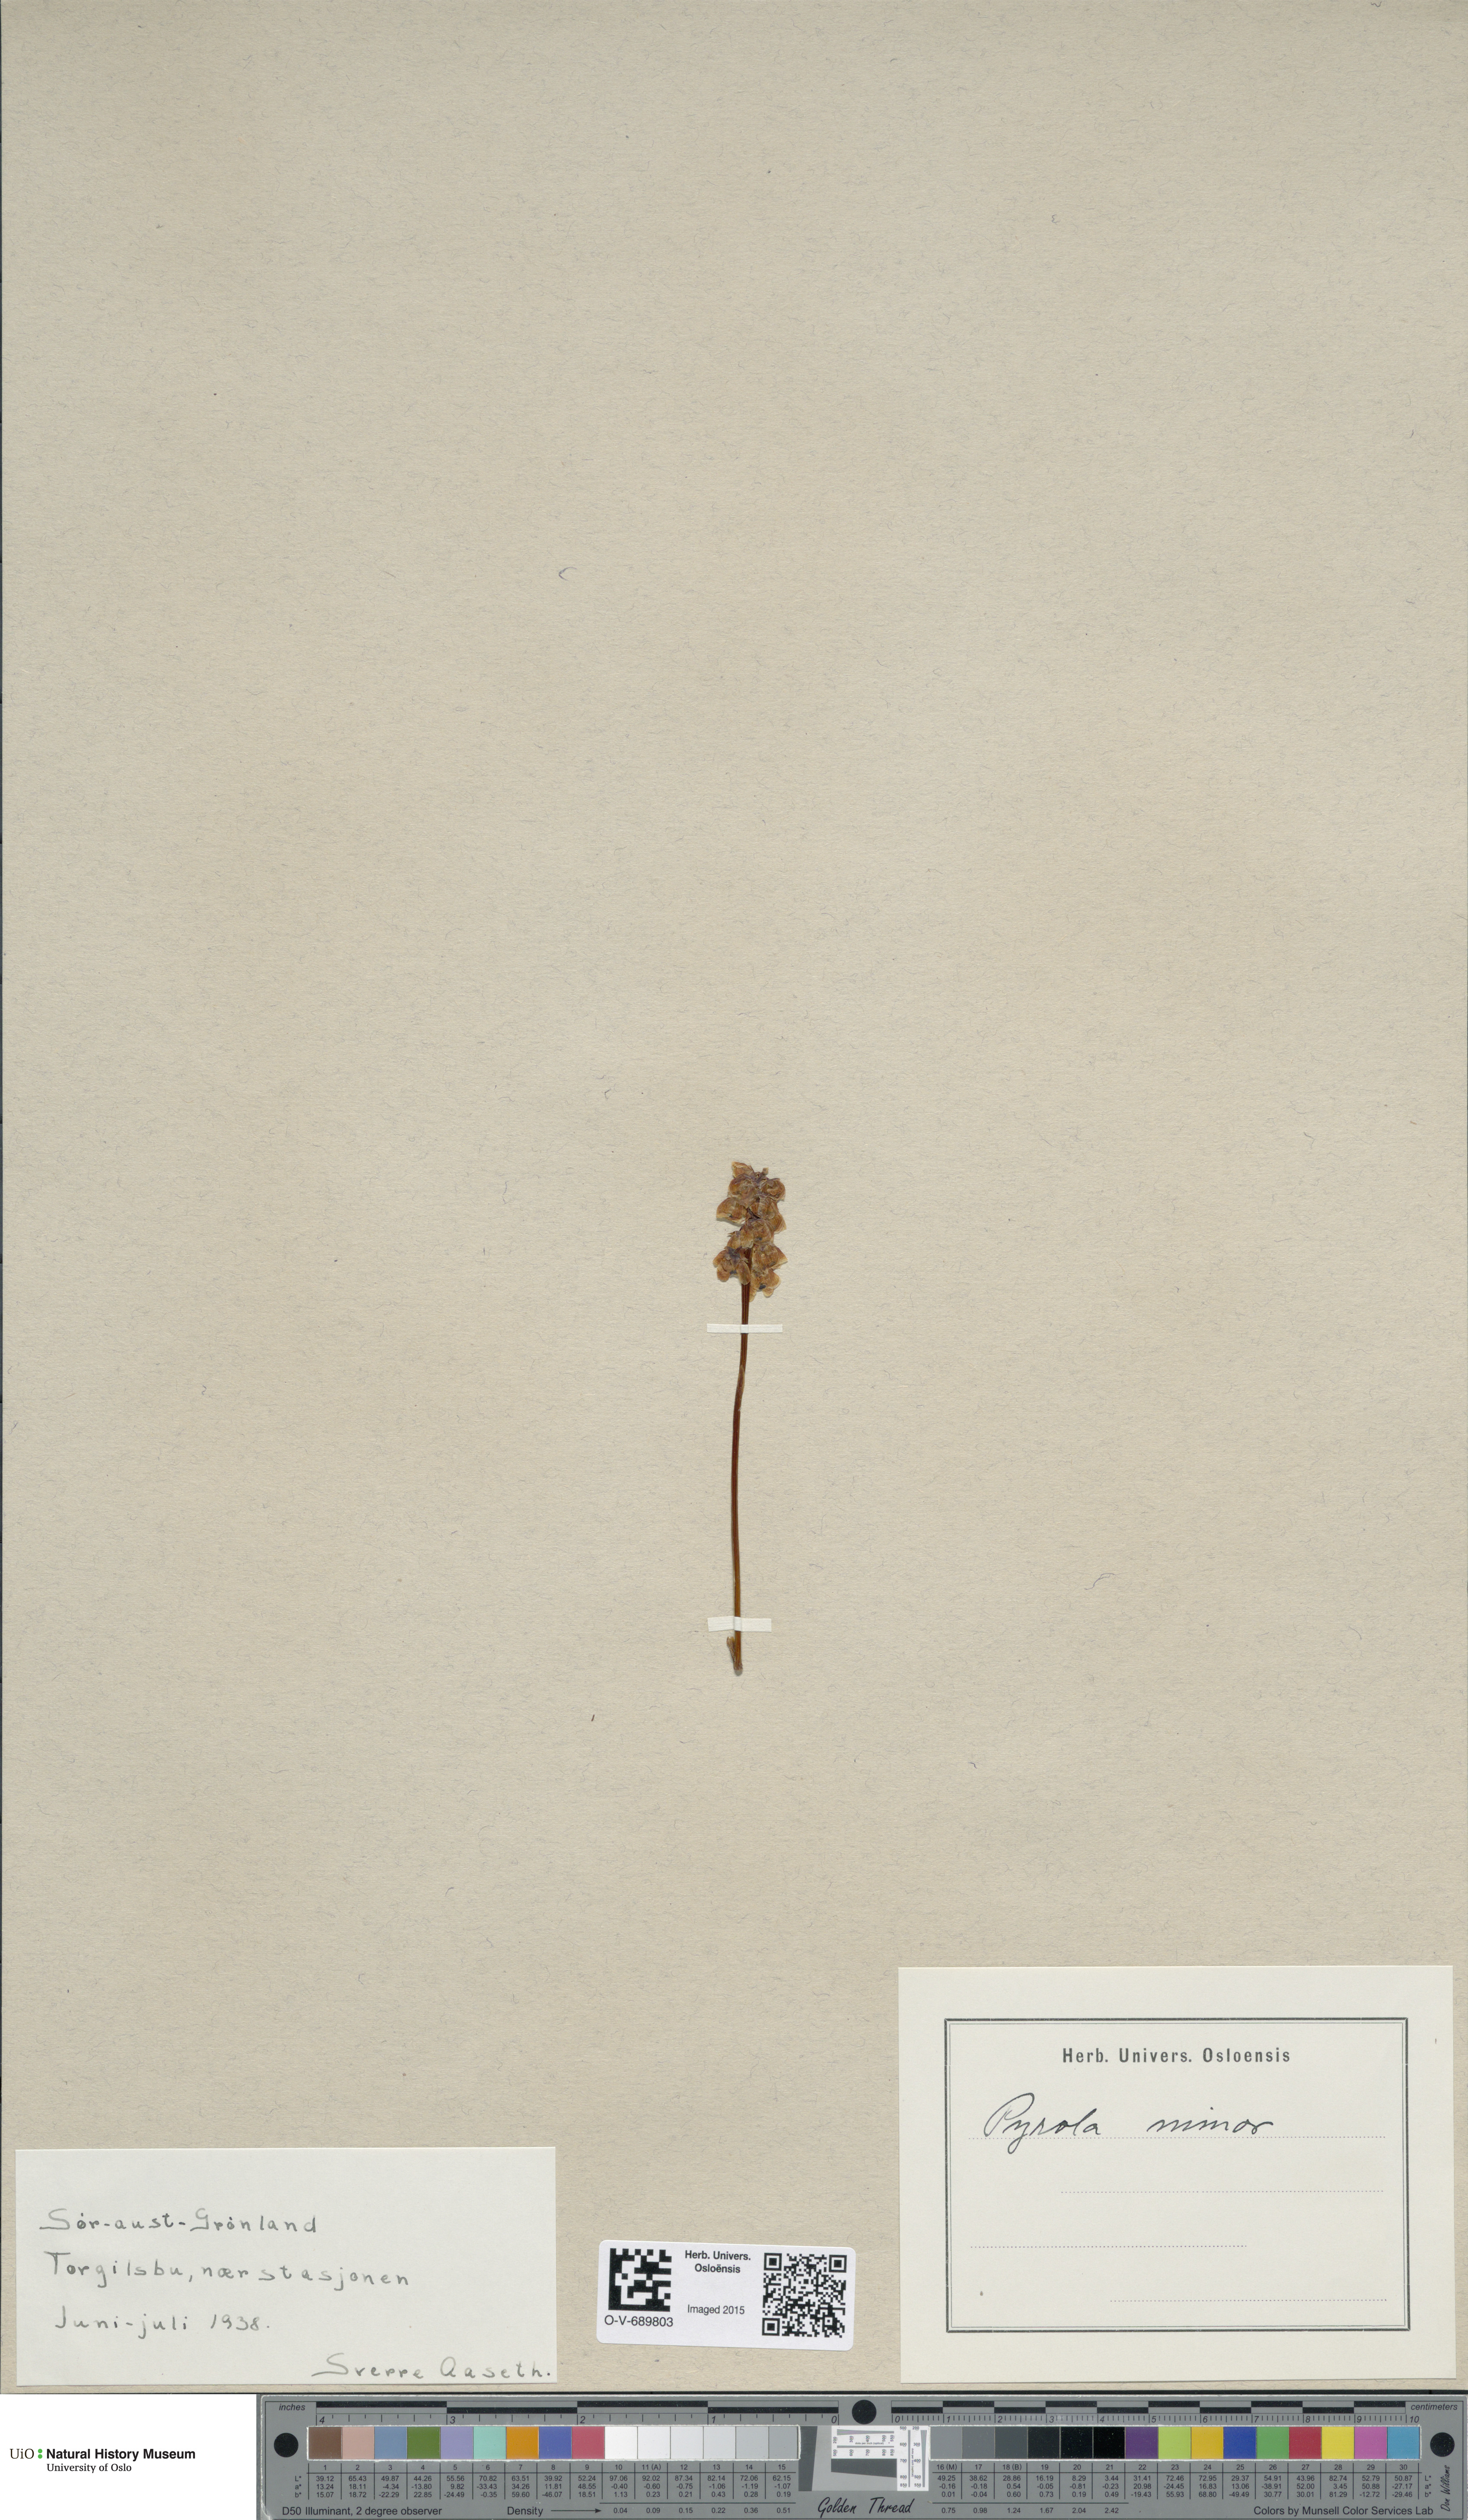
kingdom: Plantae
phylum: Tracheophyta
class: Magnoliopsida
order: Ericales
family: Ericaceae
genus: Pyrola
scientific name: Pyrola minor
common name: Common wintergreen
